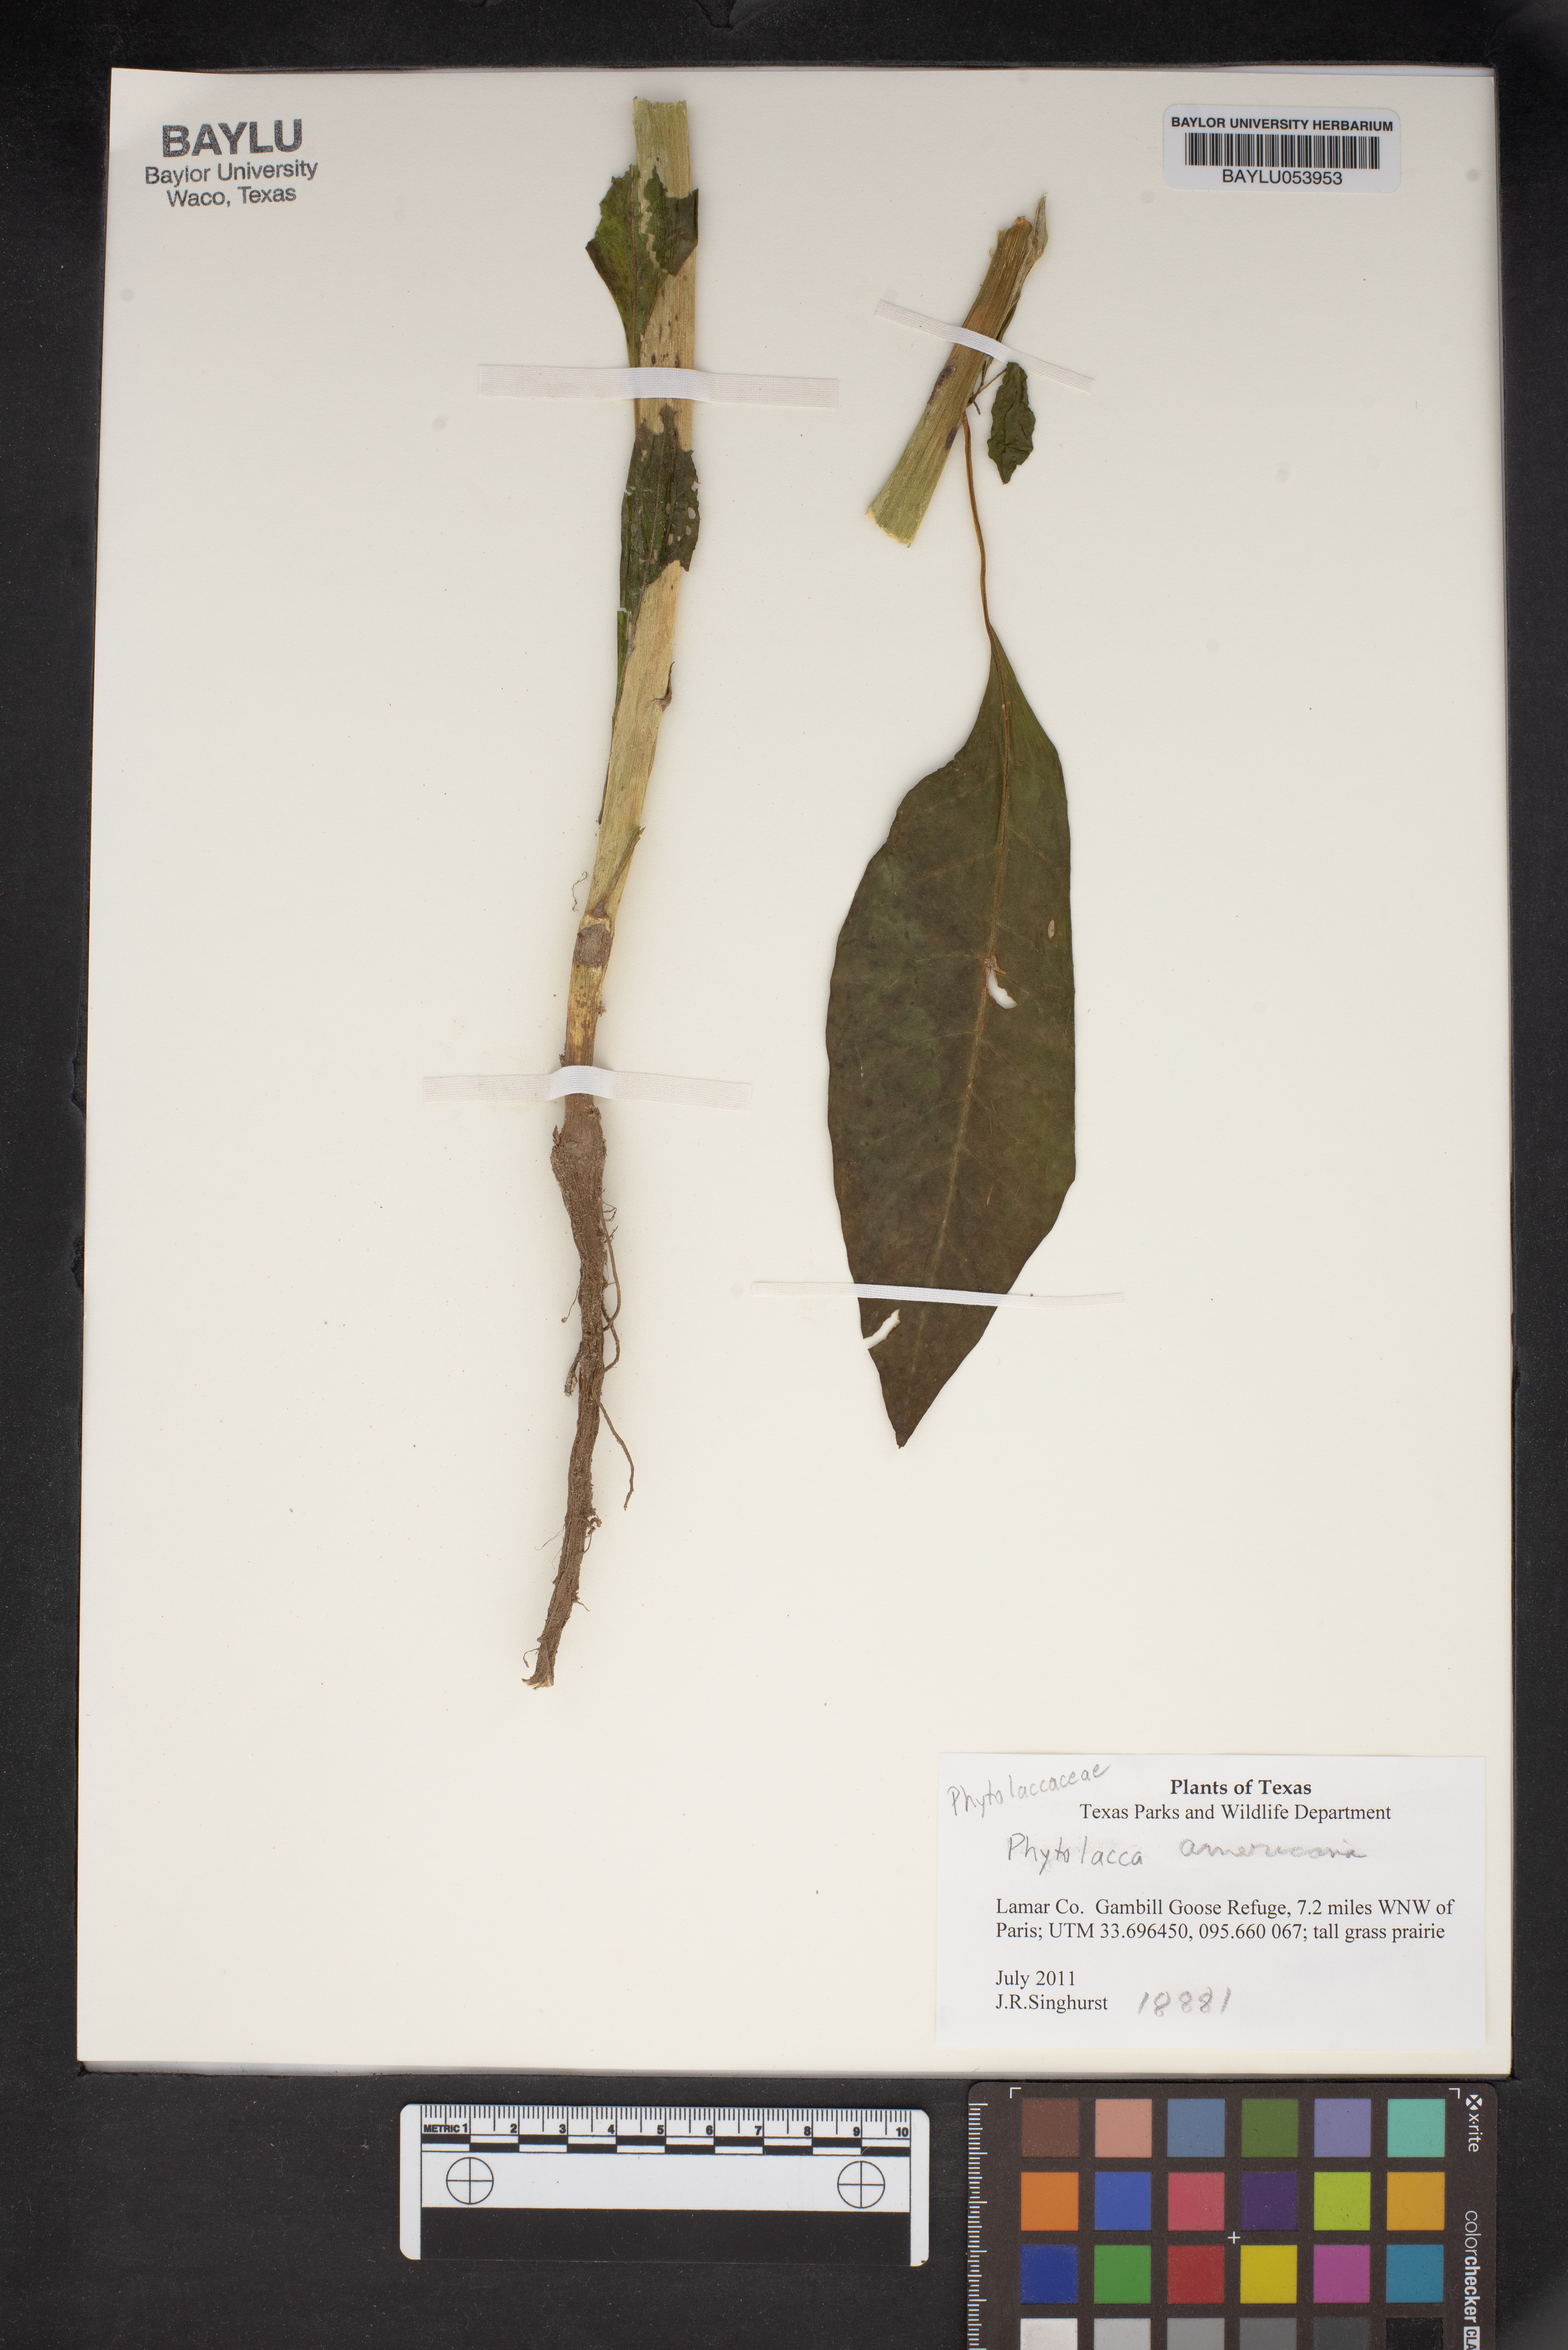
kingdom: Plantae
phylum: Tracheophyta
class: Magnoliopsida
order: Caryophyllales
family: Phytolaccaceae
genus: Phytolacca
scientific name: Phytolacca americana
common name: American pokeweed
